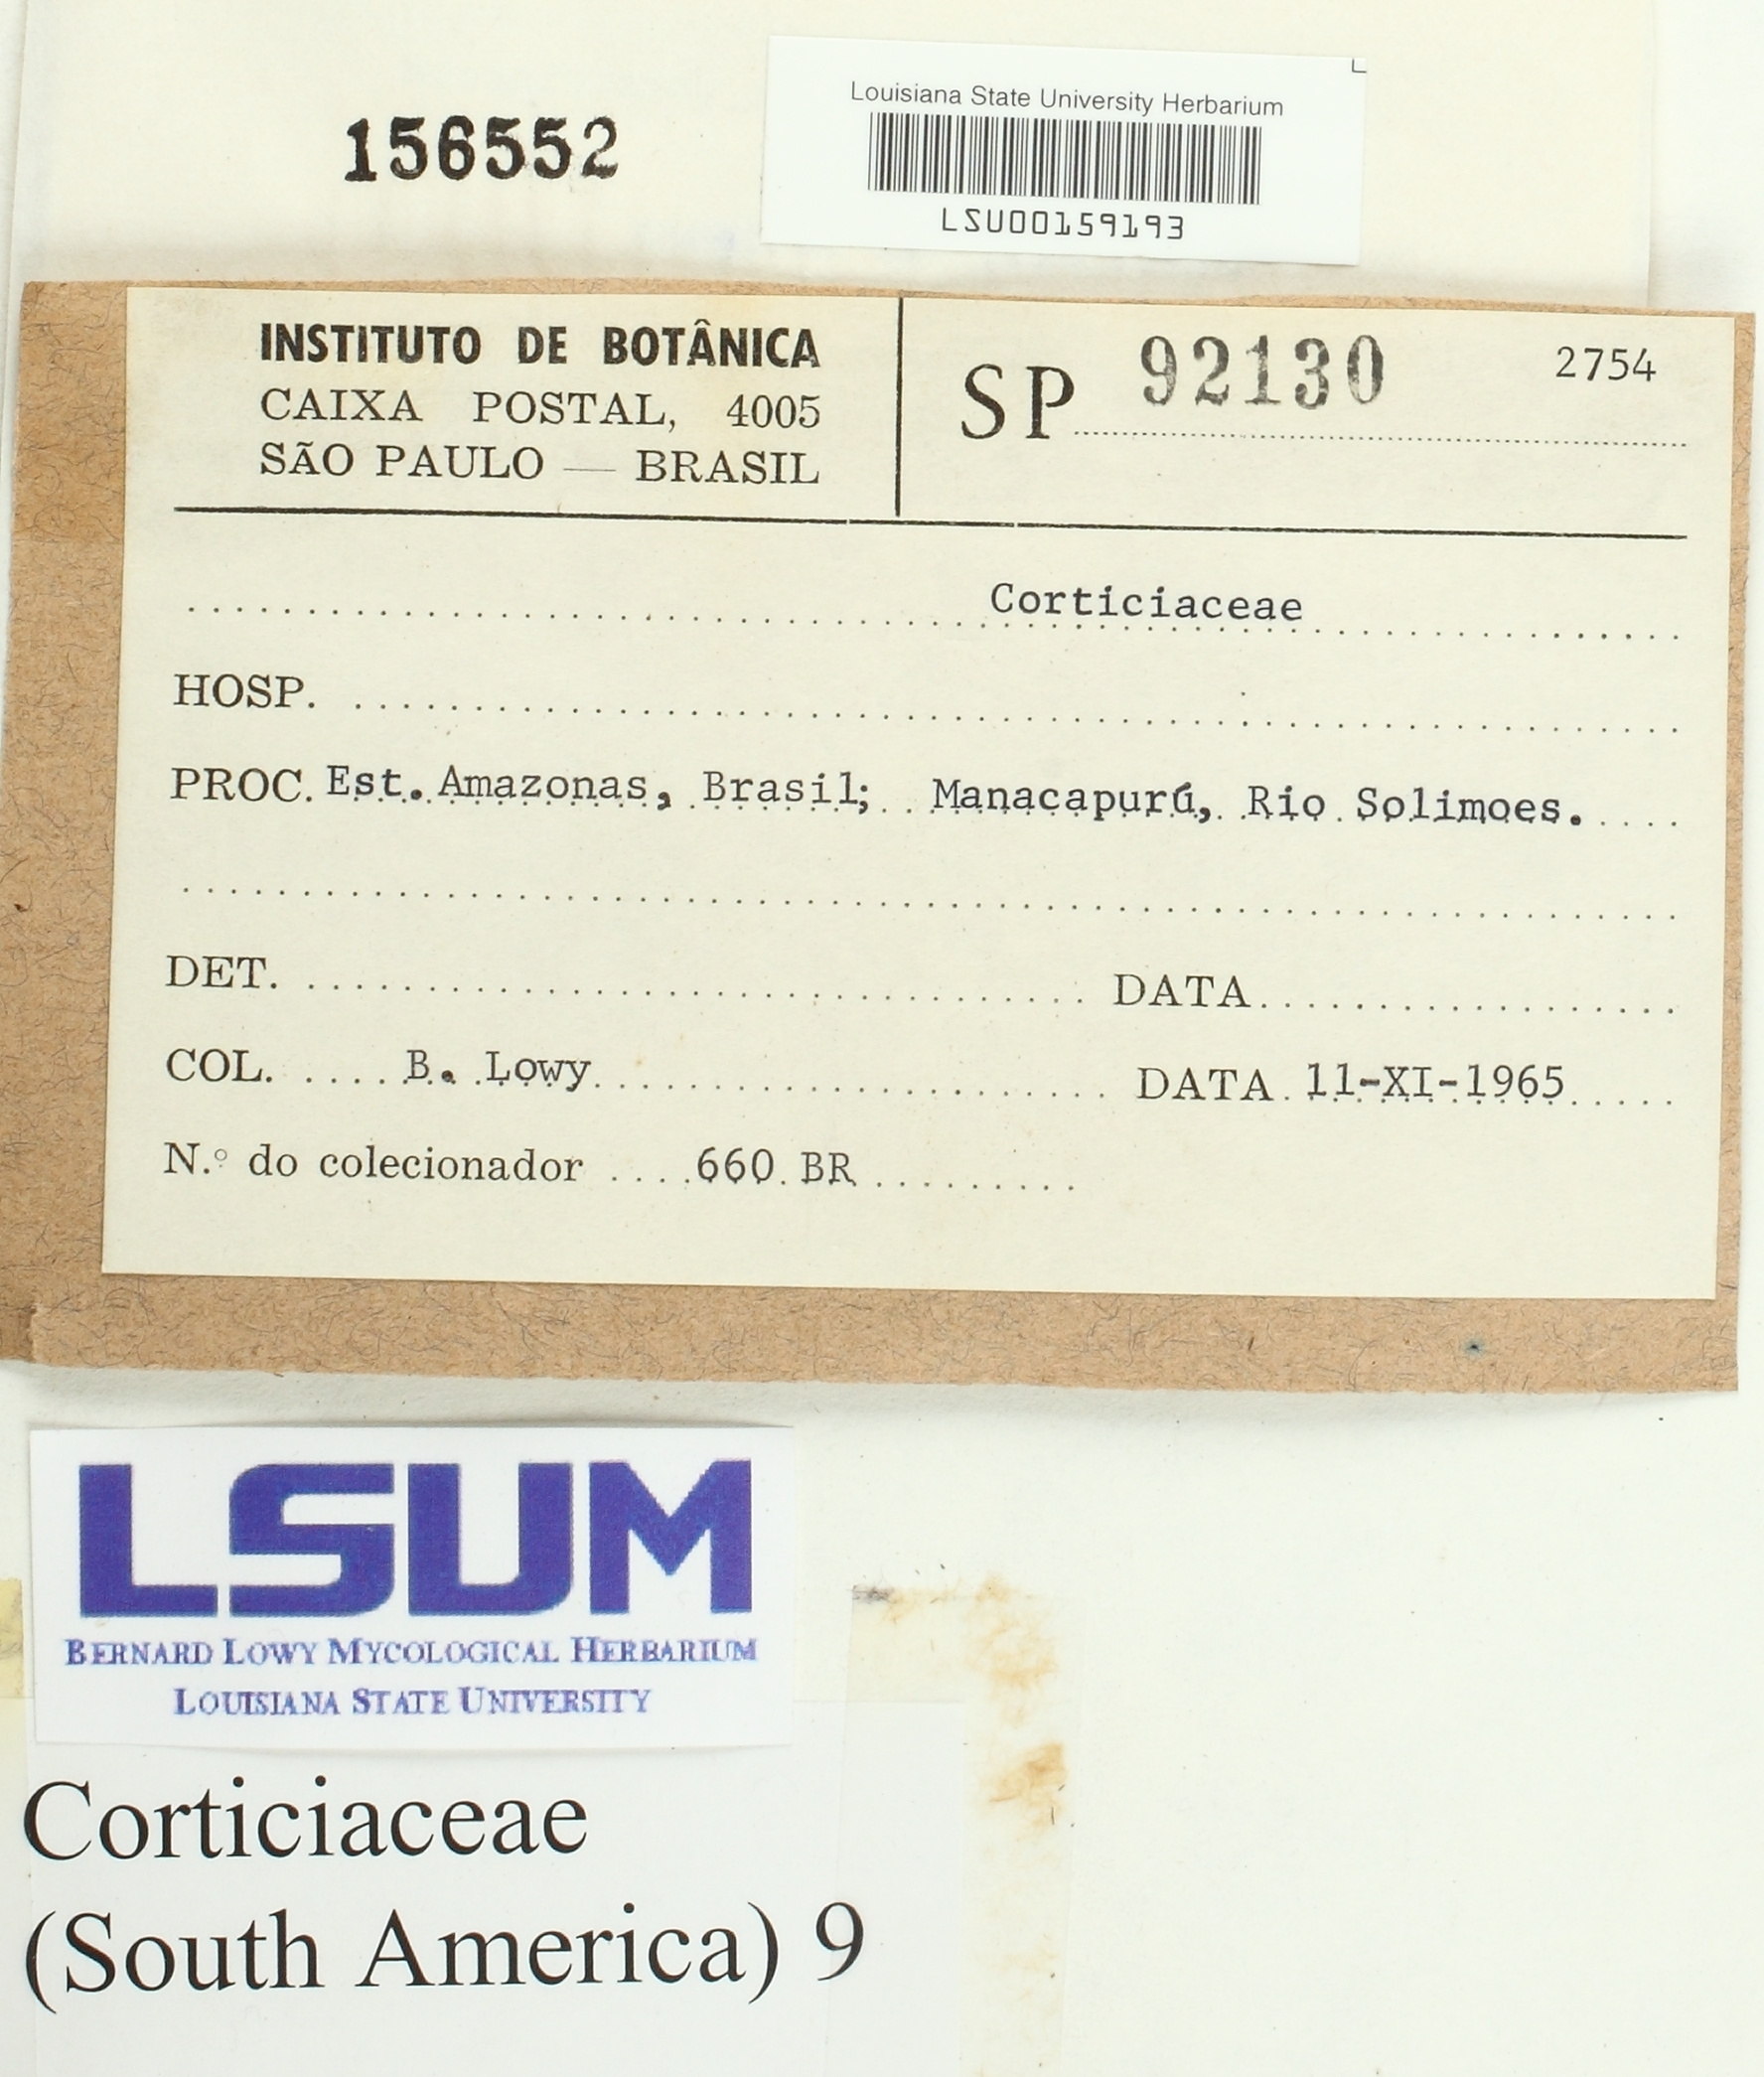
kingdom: Fungi
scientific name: Fungi
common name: Fungi
